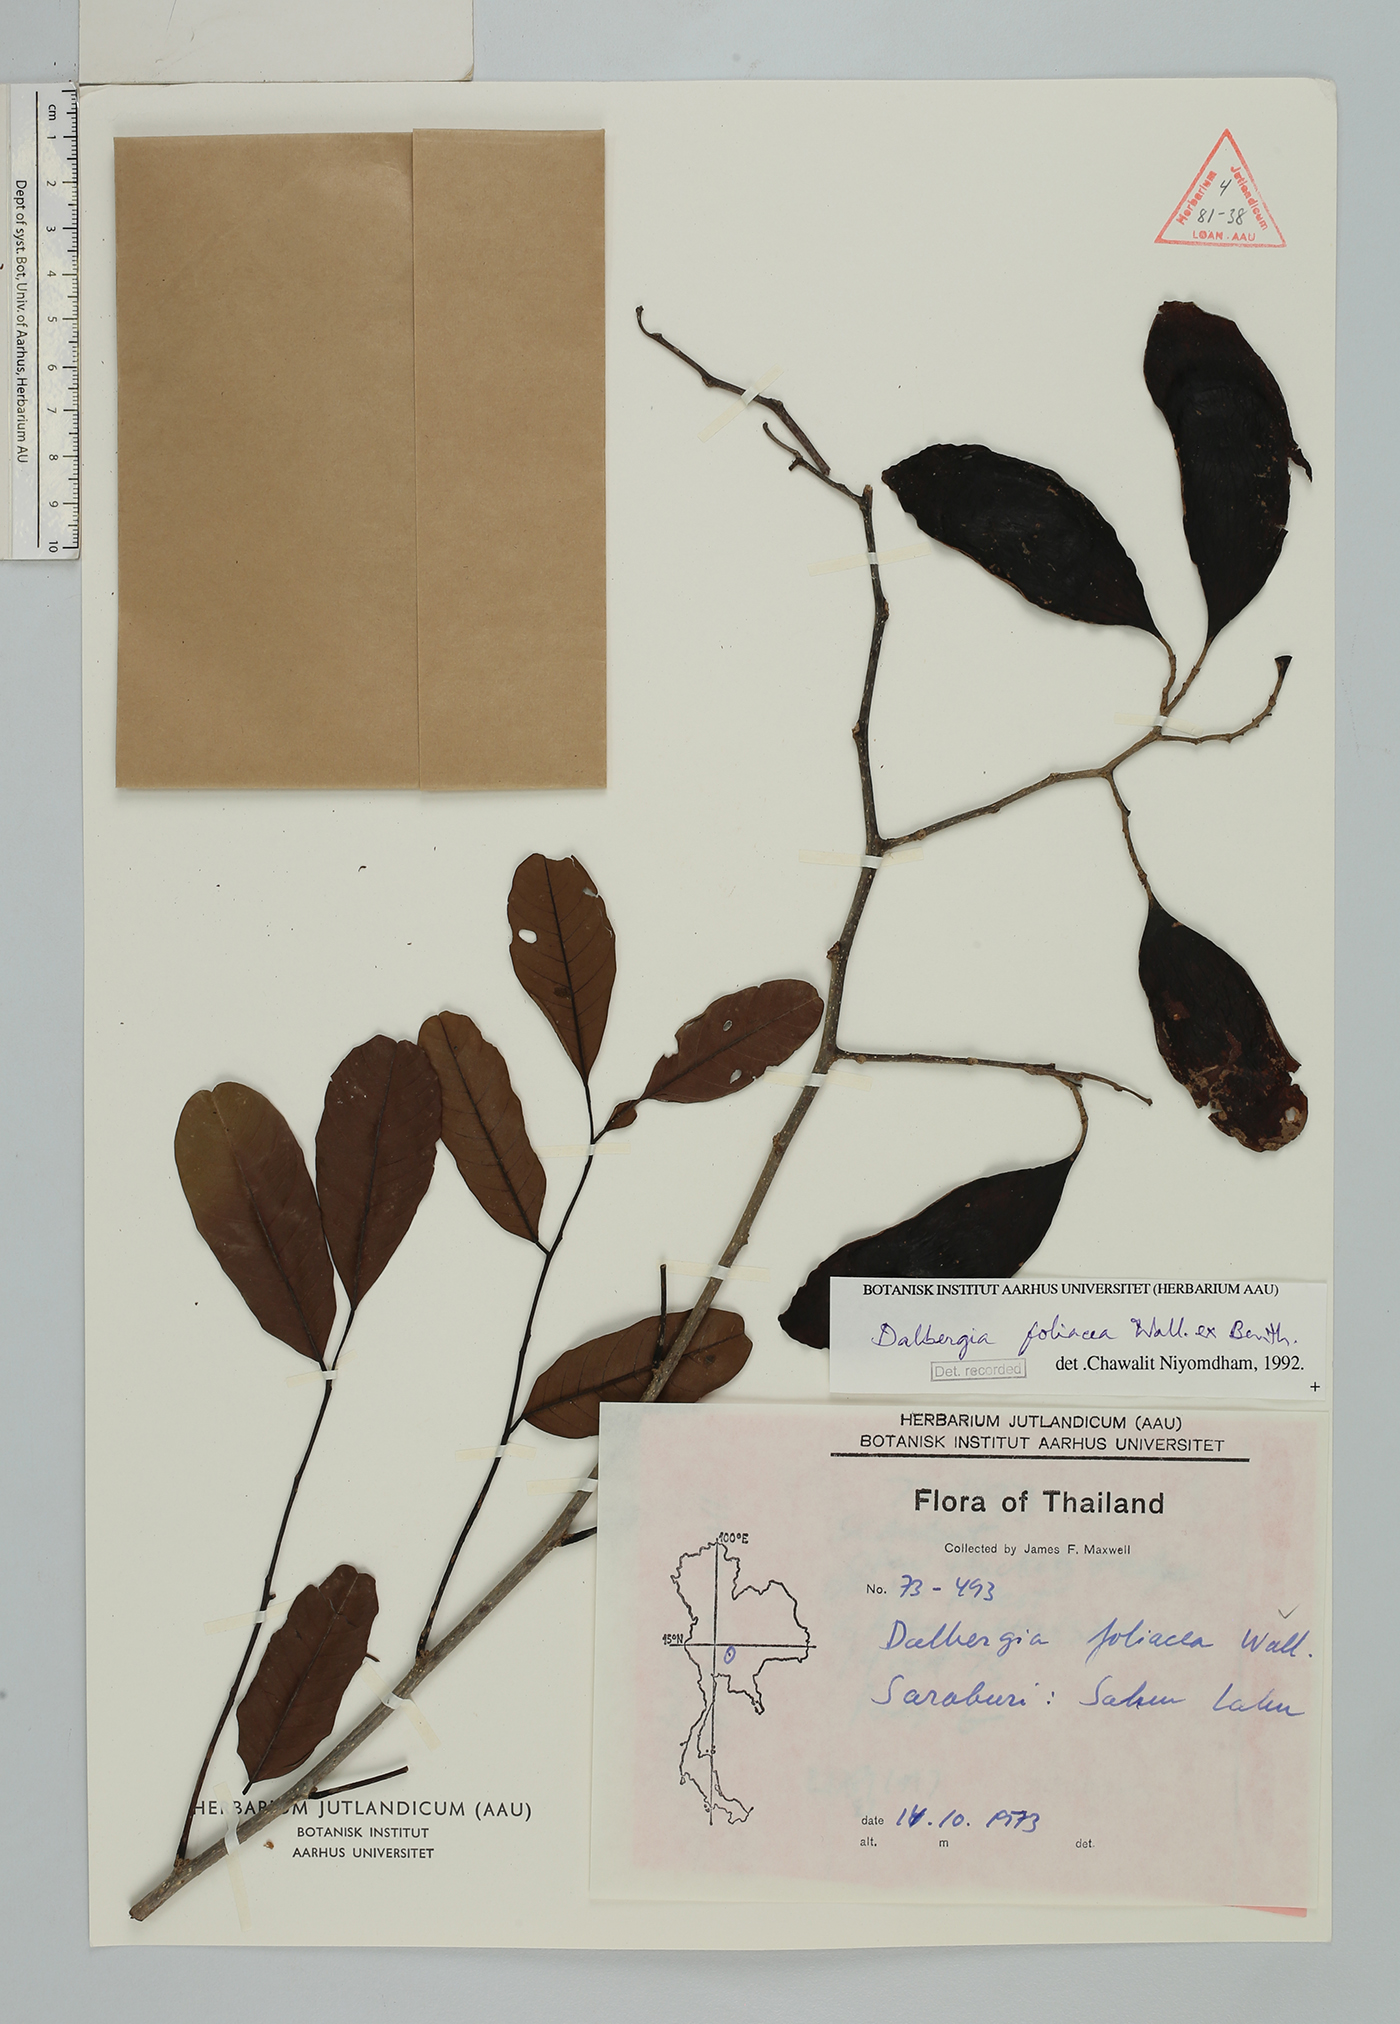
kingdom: Plantae
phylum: Tracheophyta
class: Magnoliopsida
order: Fabales
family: Fabaceae
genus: Dalbergia
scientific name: Dalbergia foliosa
